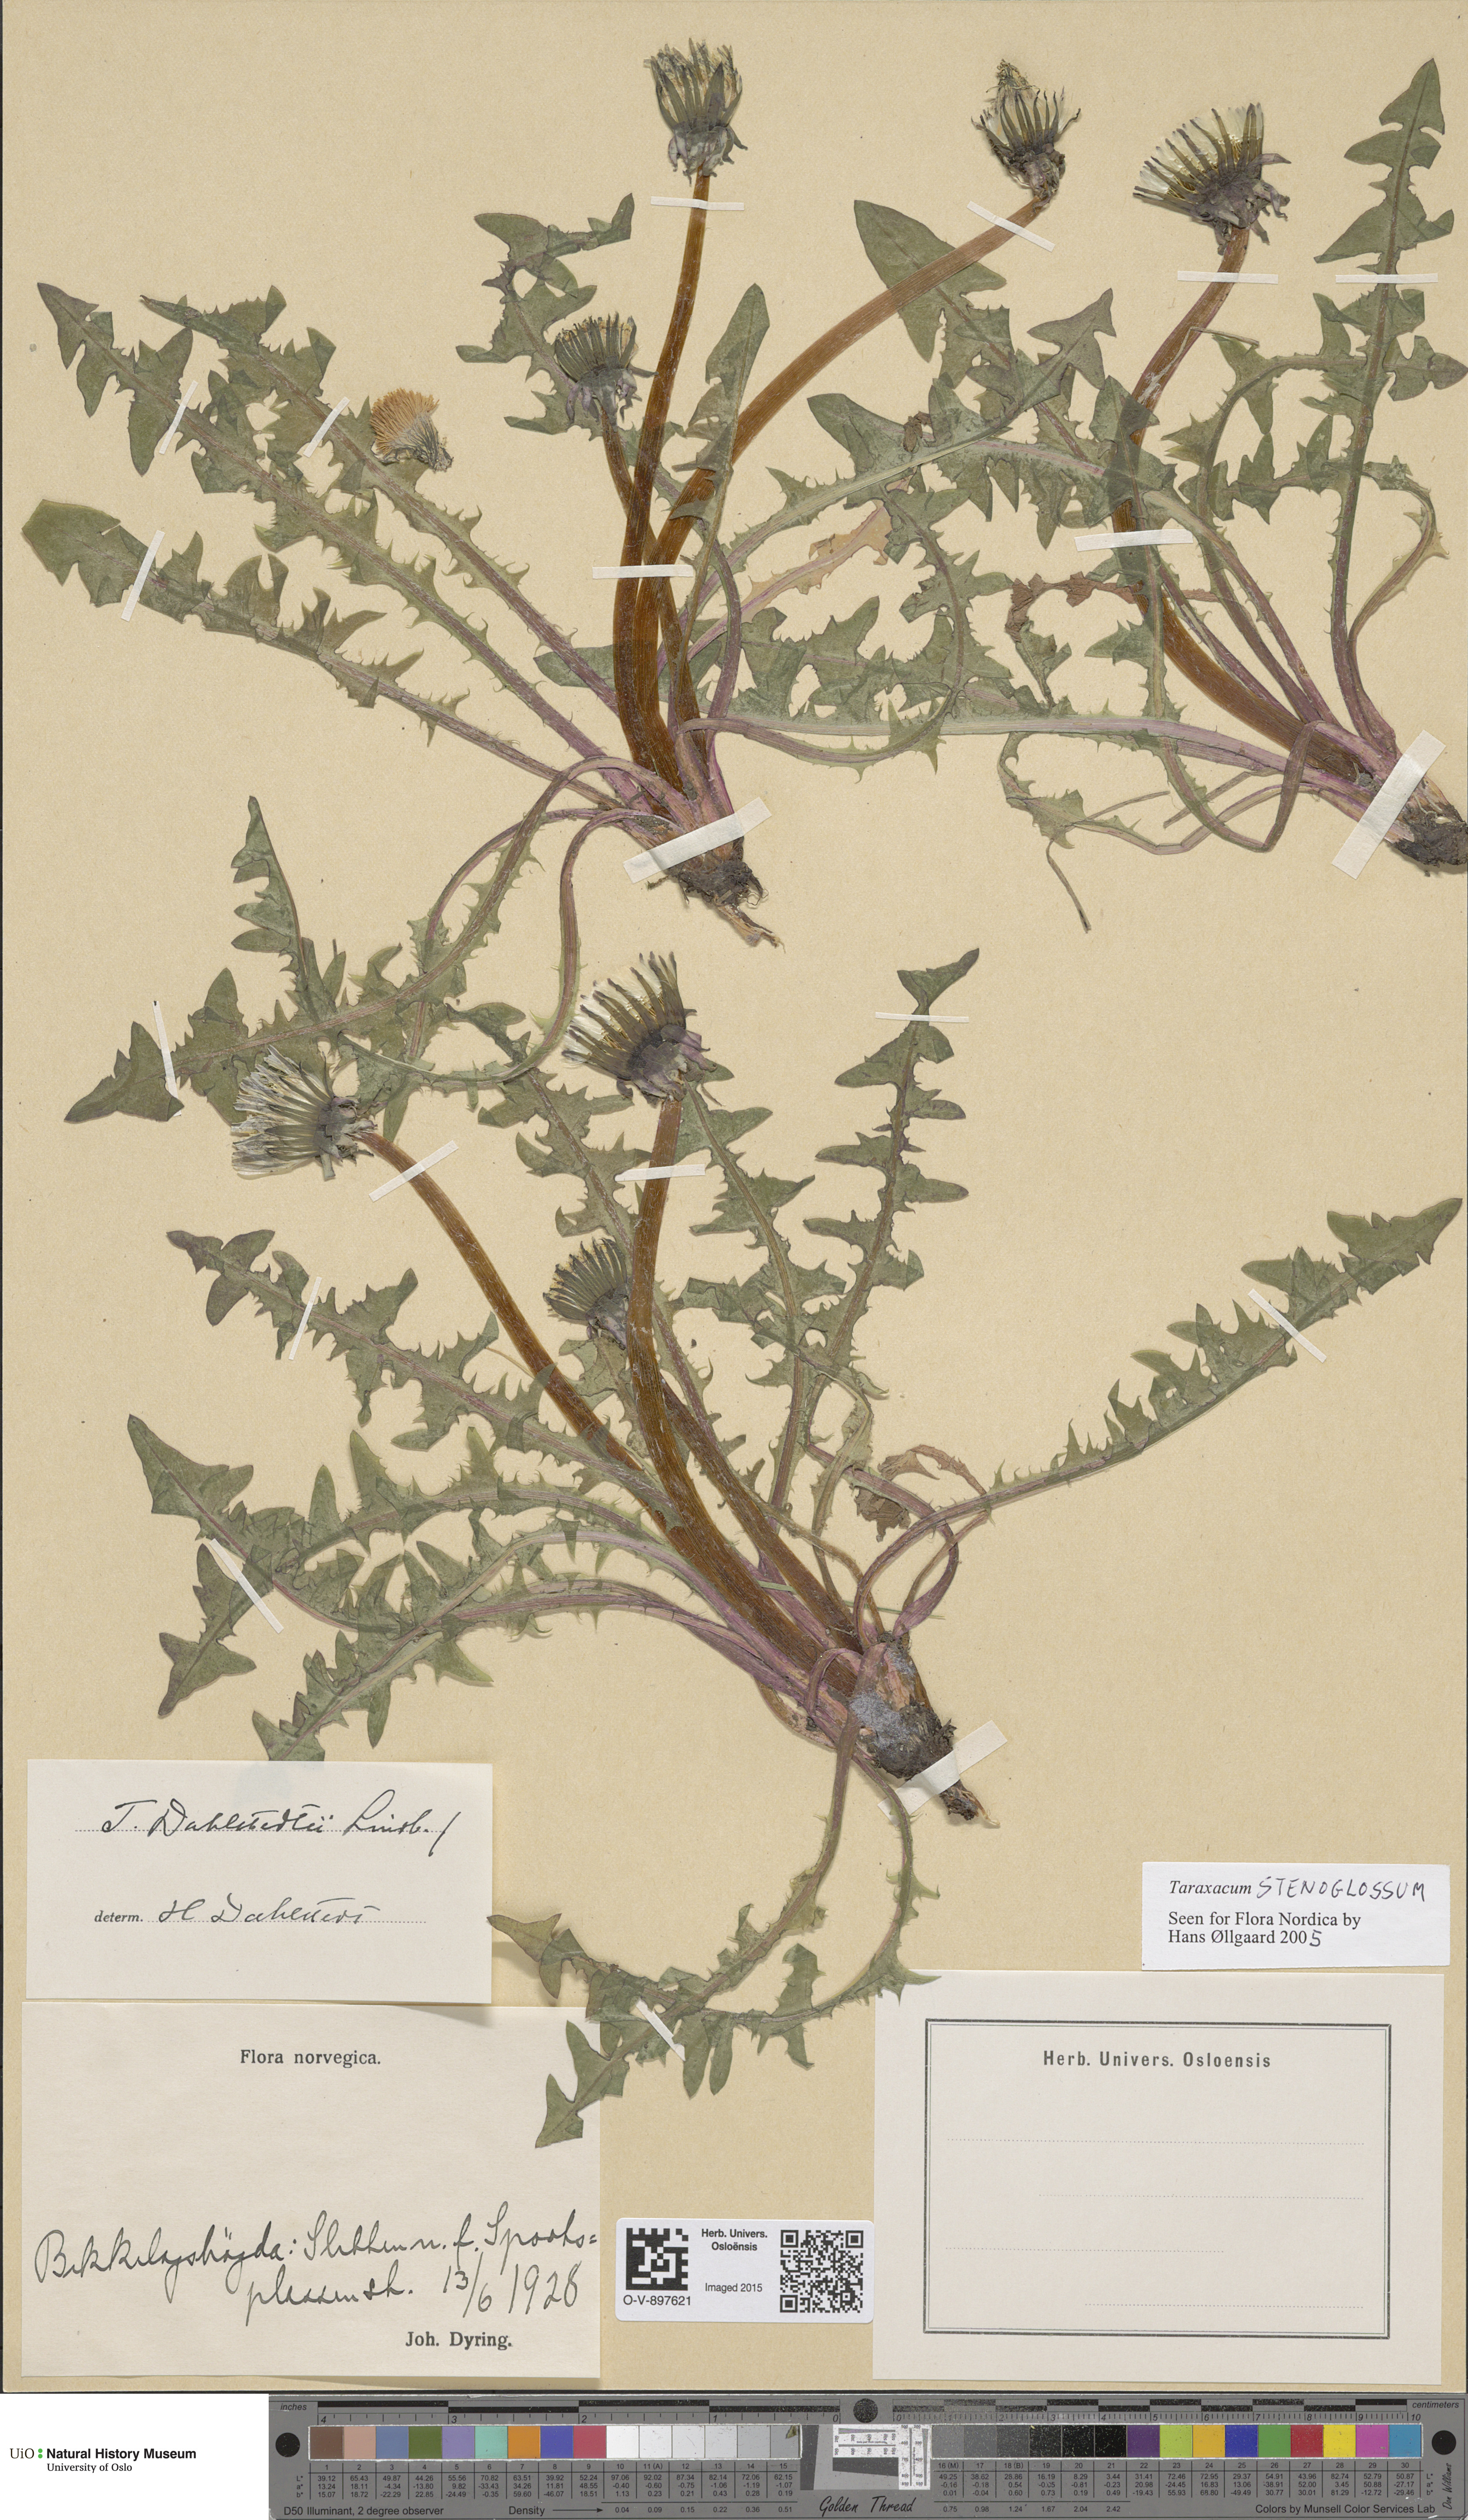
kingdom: Plantae
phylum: Tracheophyta
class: Magnoliopsida
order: Asterales
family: Asteraceae
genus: Taraxacum
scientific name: Taraxacum stenoglossum
